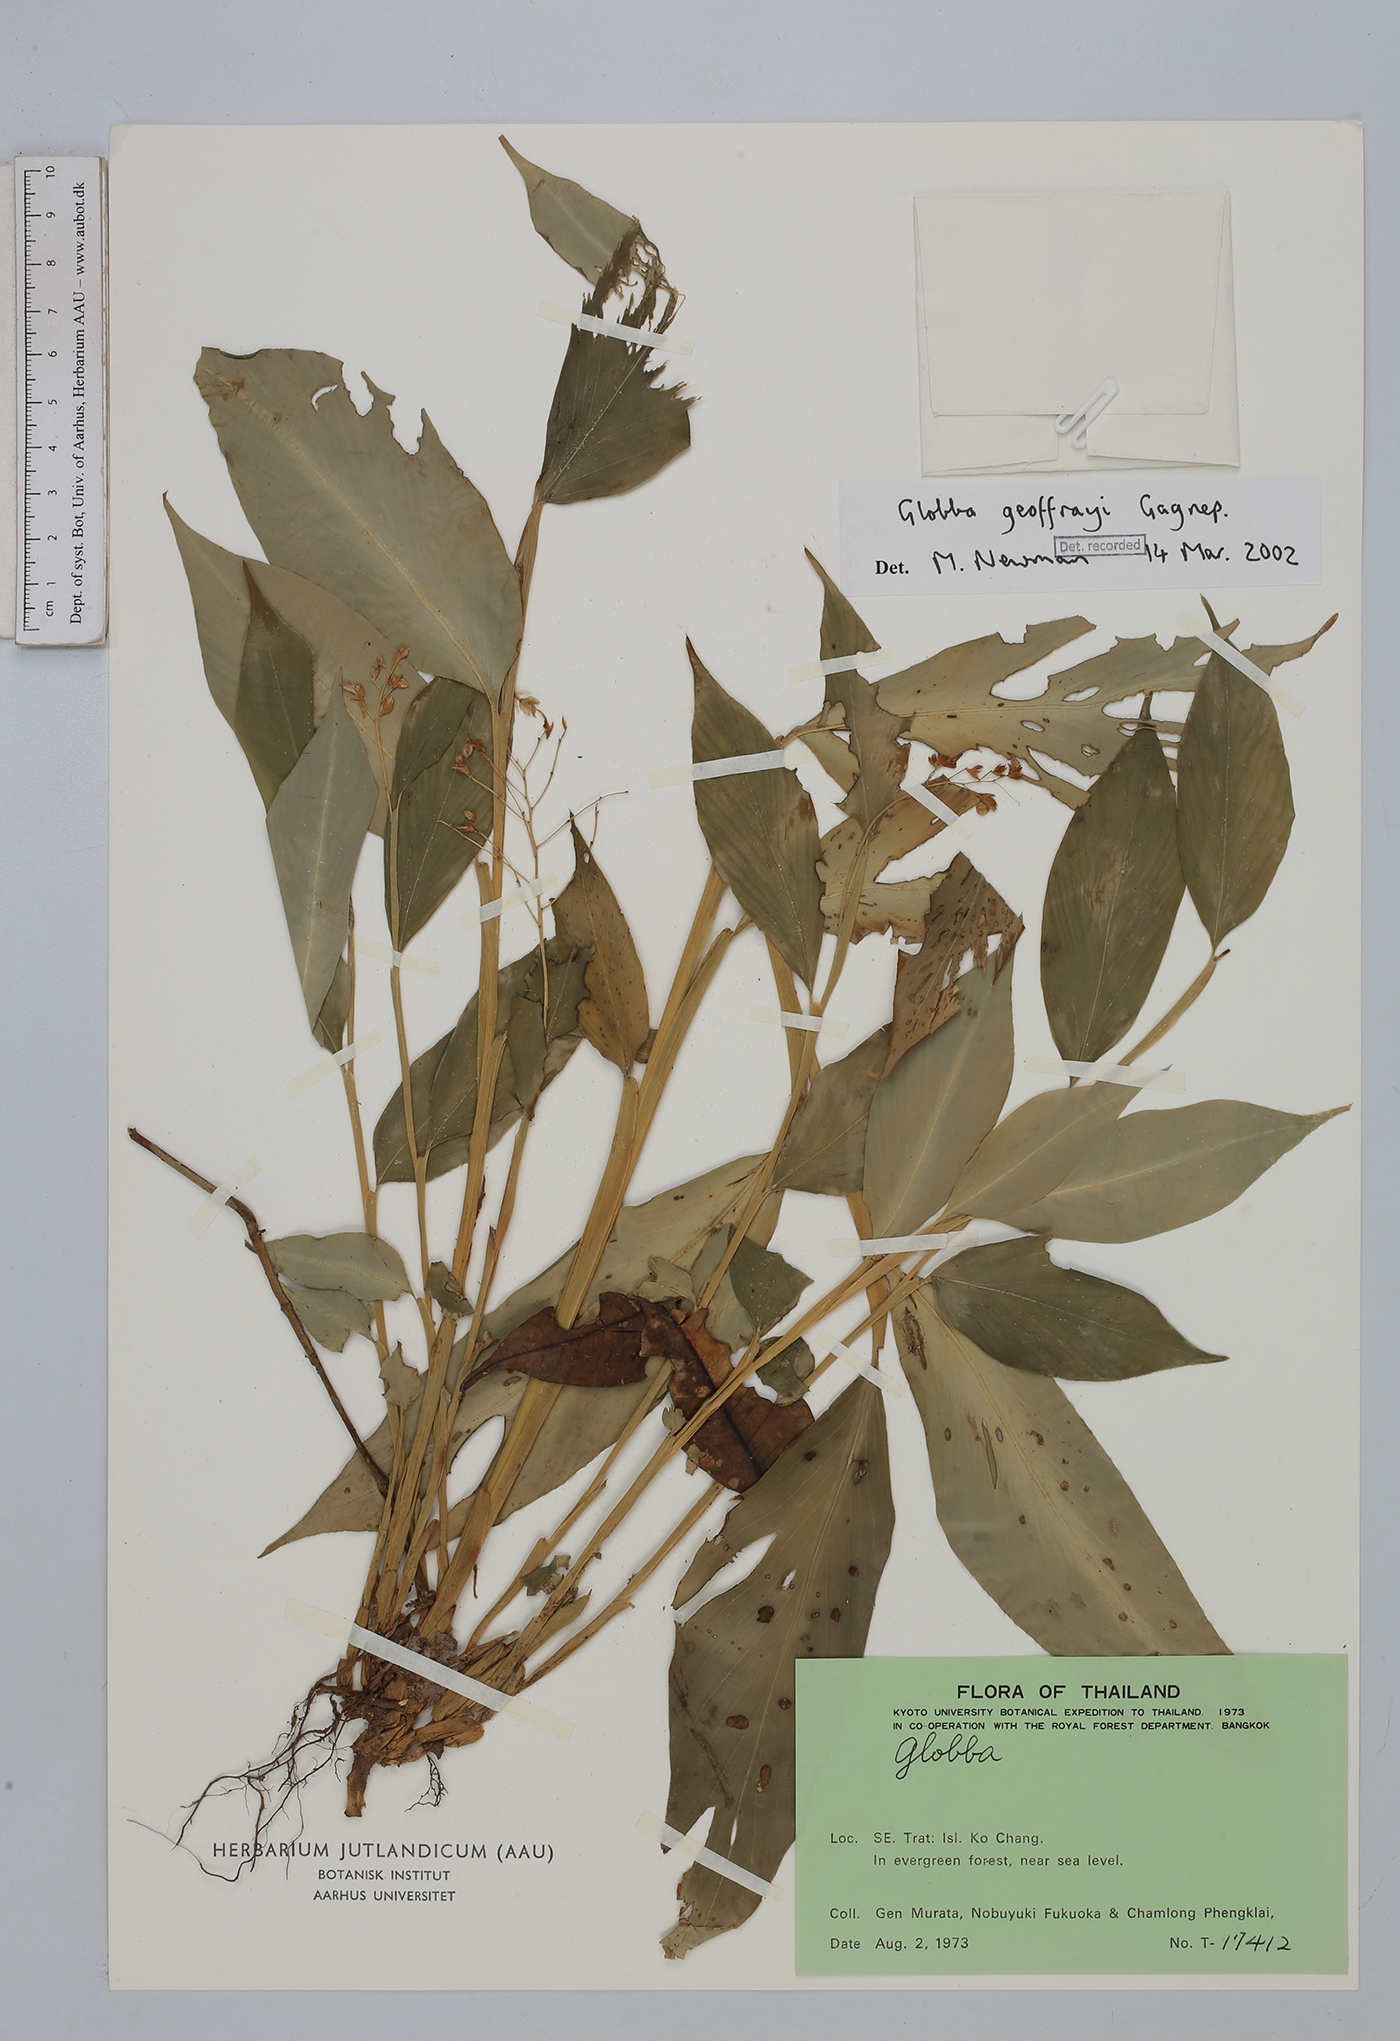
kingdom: Plantae
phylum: Tracheophyta
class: Liliopsida
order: Zingiberales
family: Zingiberaceae
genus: Globba
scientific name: Globba geoffrayi
